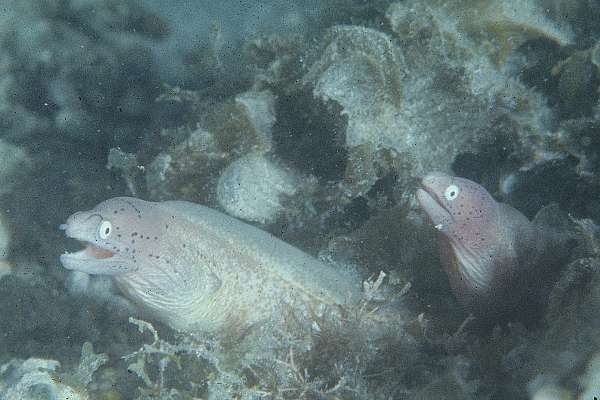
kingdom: Animalia
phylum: Chordata
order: Anguilliformes
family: Muraenidae
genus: Gymnothorax
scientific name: Gymnothorax griseus
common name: Geometric moray
